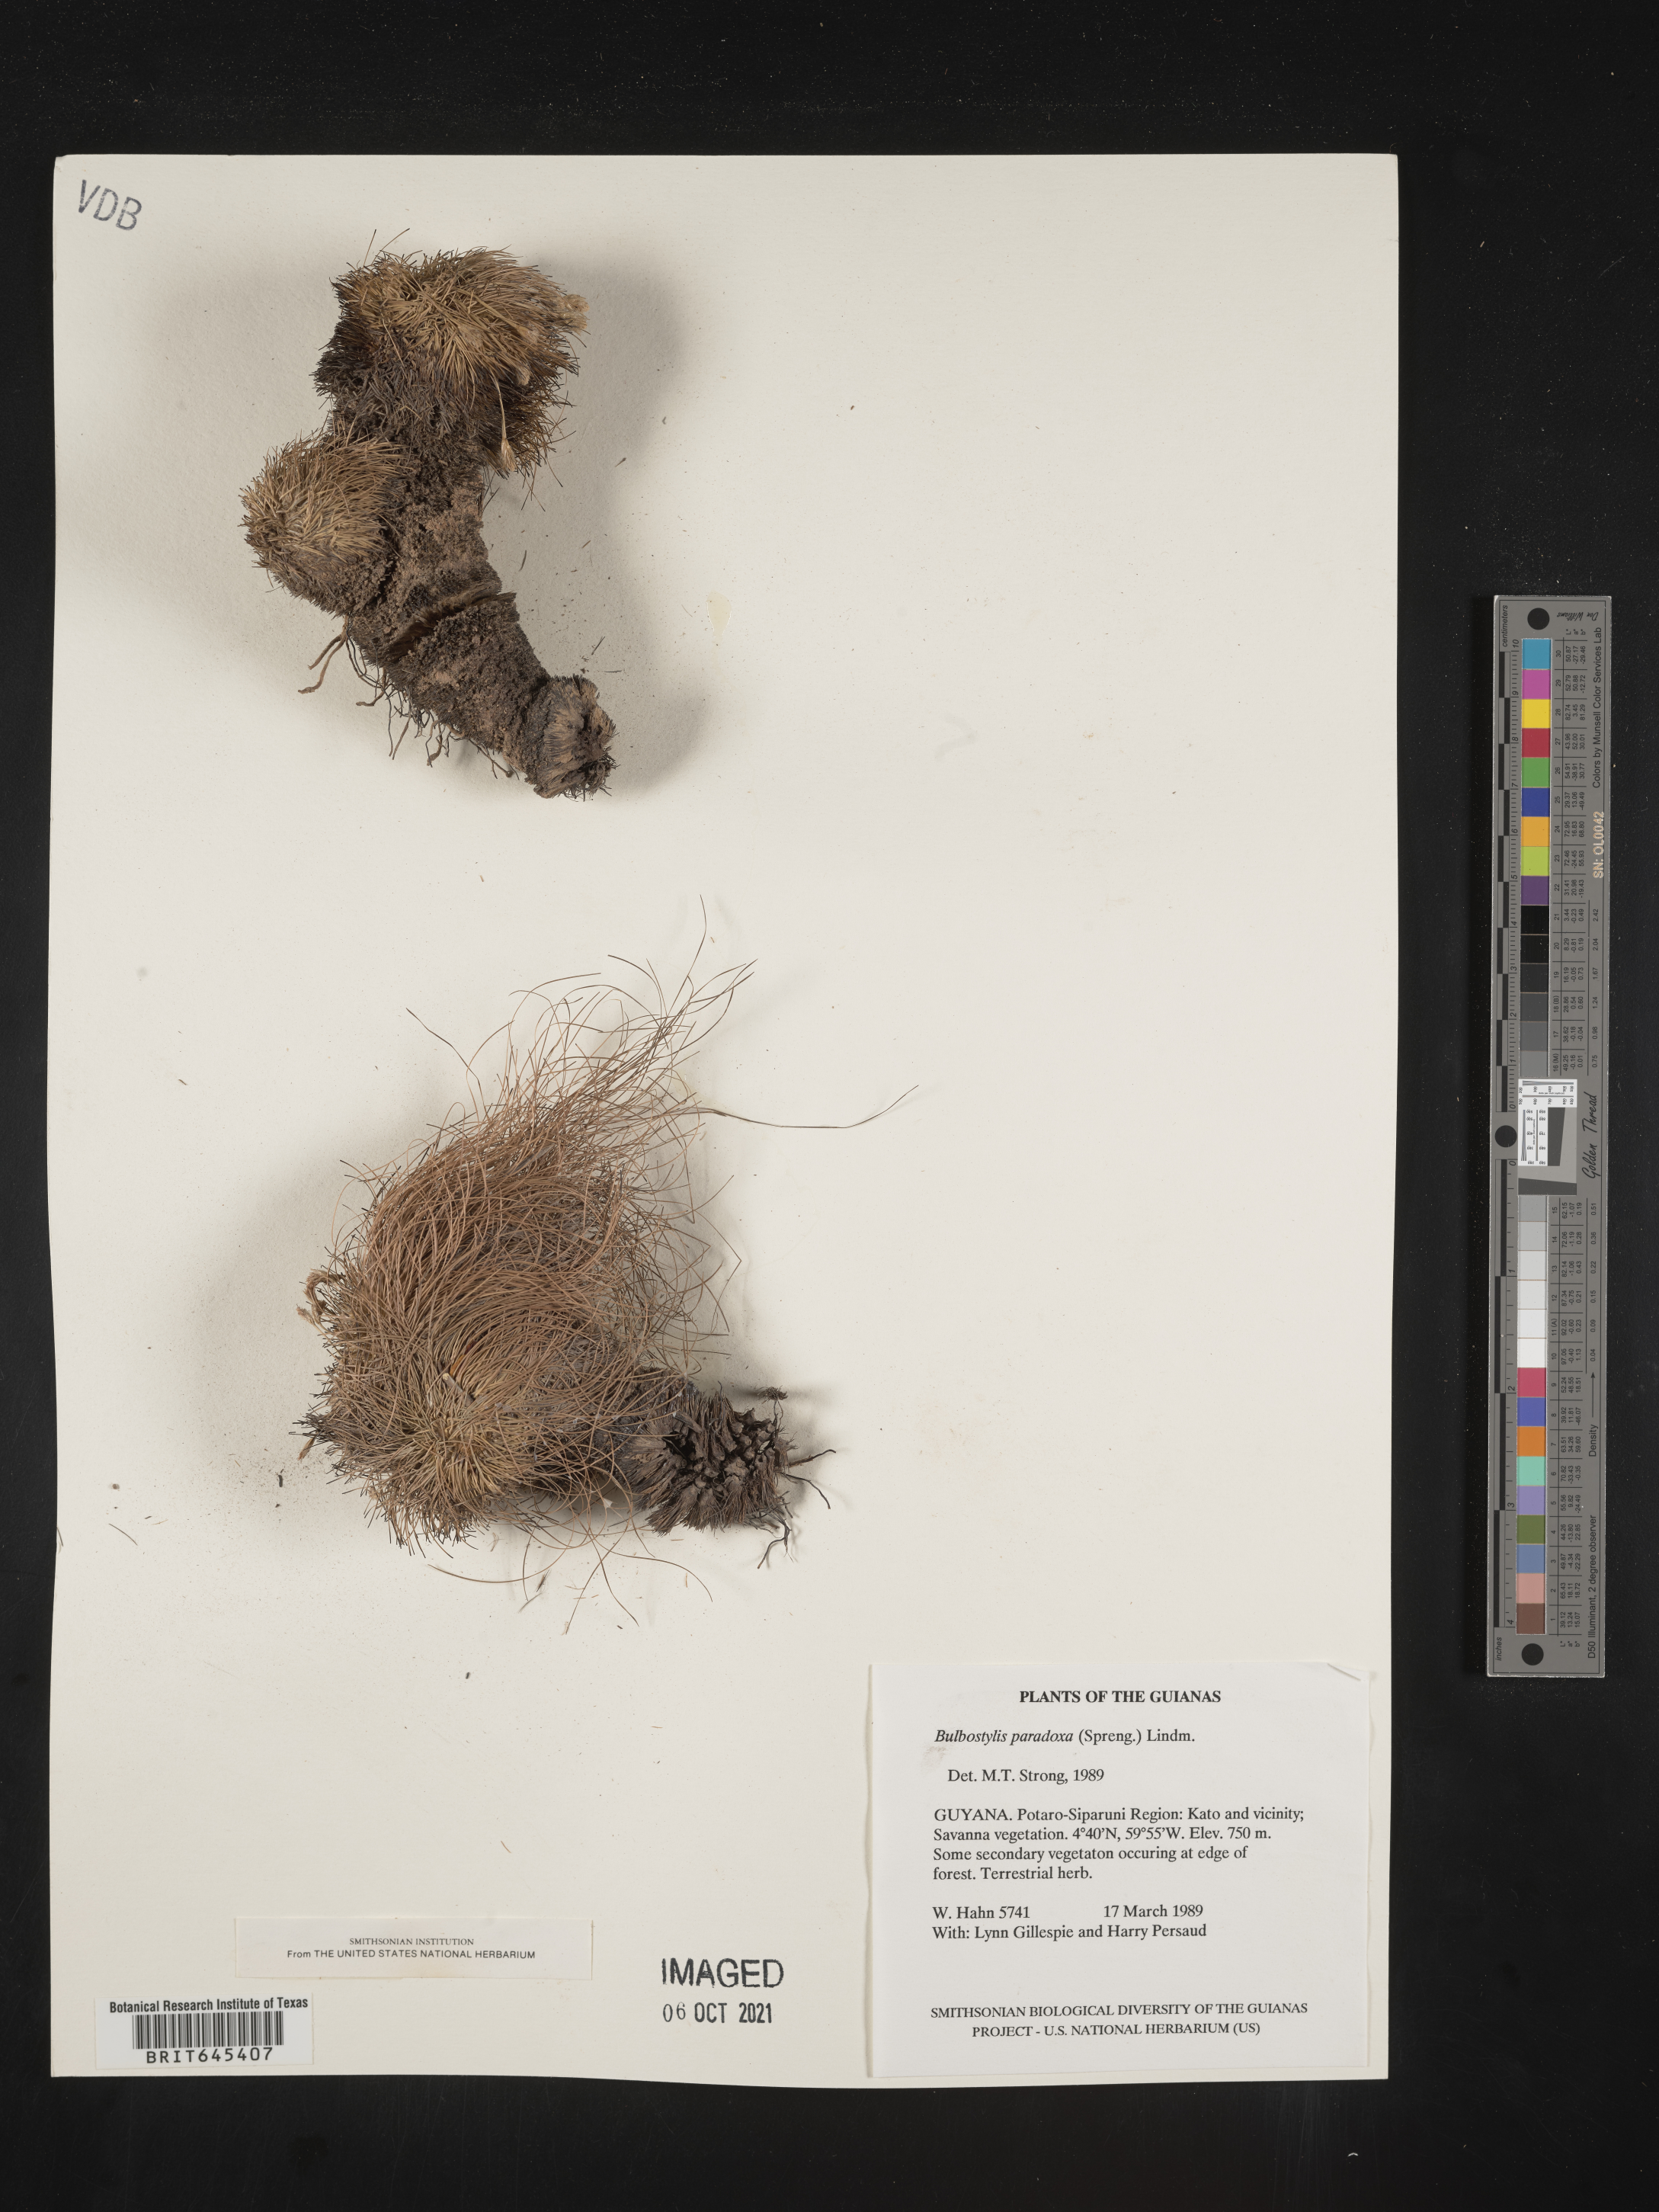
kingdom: Plantae
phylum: Tracheophyta
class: Liliopsida
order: Poales
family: Cyperaceae
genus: Bulbostylis
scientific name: Bulbostylis paradoxa
